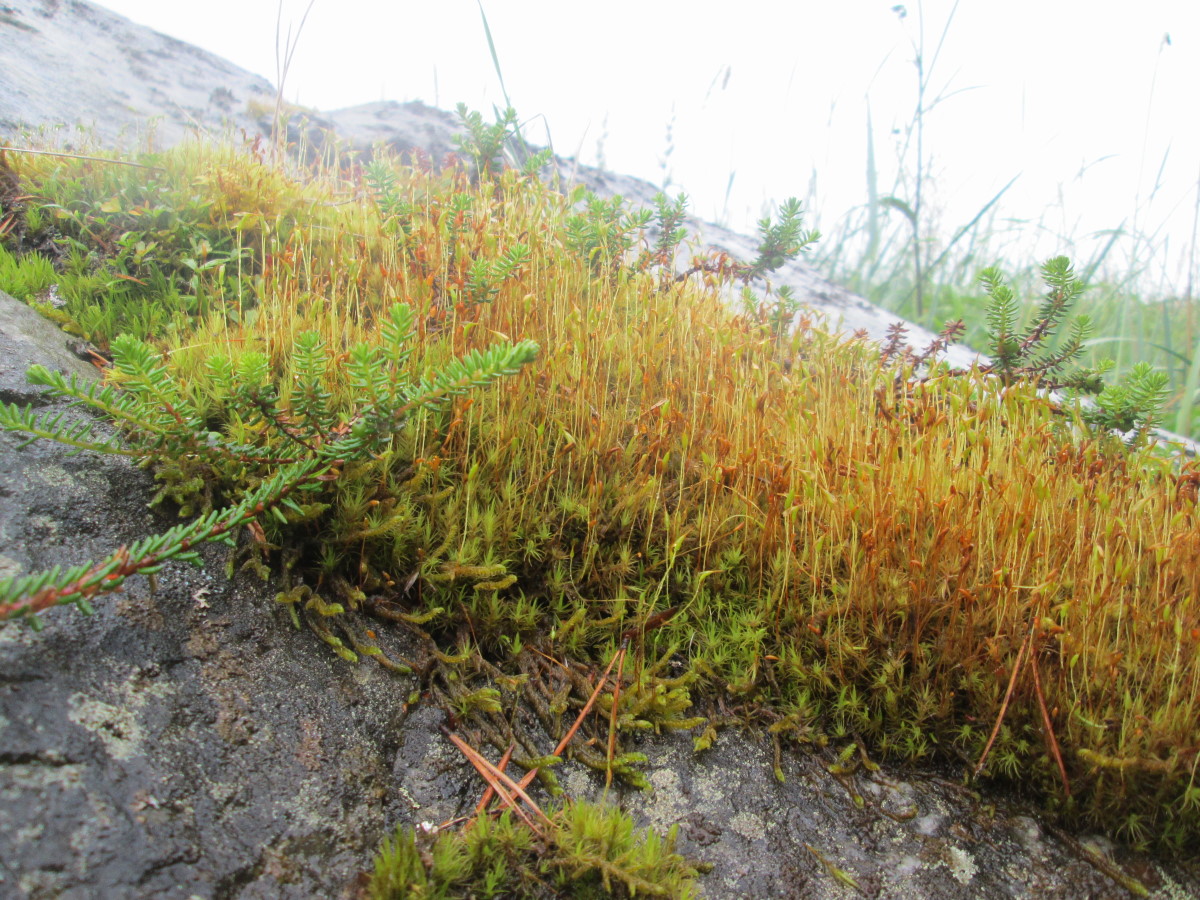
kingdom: Plantae
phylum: Tracheophyta
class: Magnoliopsida
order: Ericales
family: Ericaceae
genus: Empetrum
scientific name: Empetrum hermaphroditum
